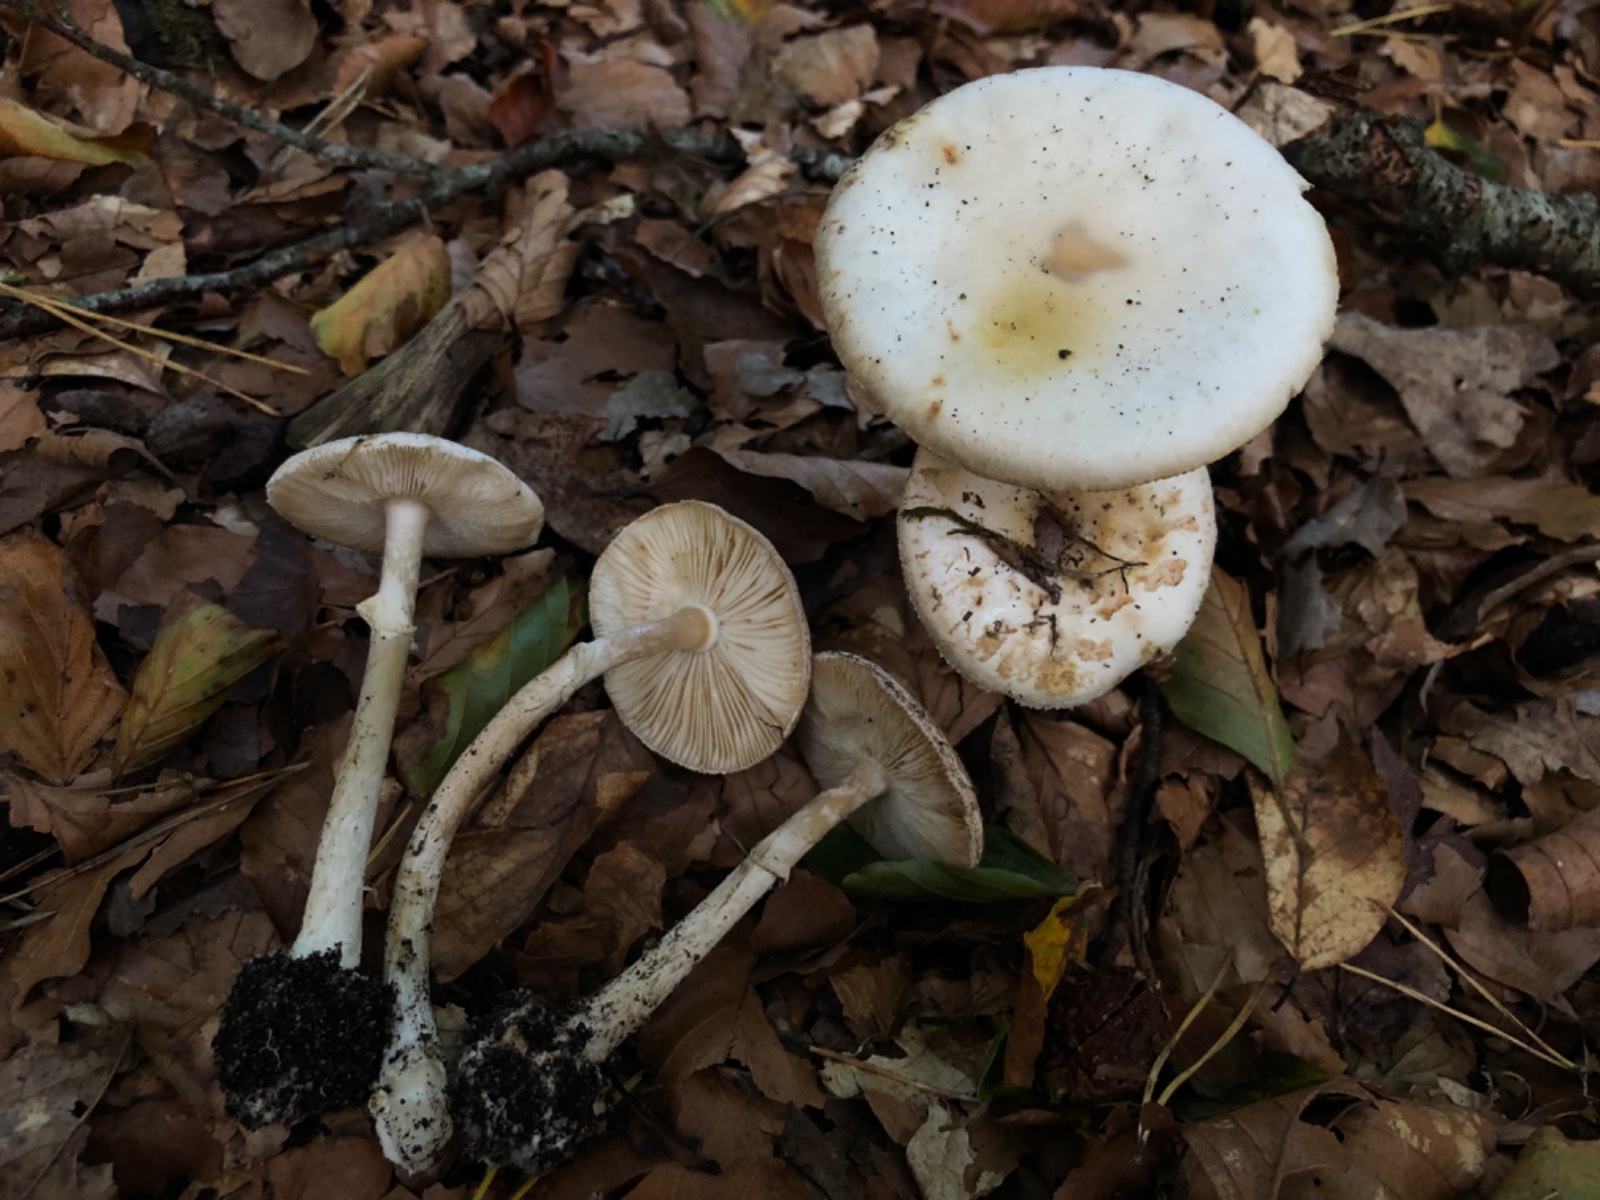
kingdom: Fungi
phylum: Basidiomycota
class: Agaricomycetes
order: Agaricales
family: Amanitaceae
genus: Amanita
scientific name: Amanita citrina
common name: kugleknoldet fluesvamp
